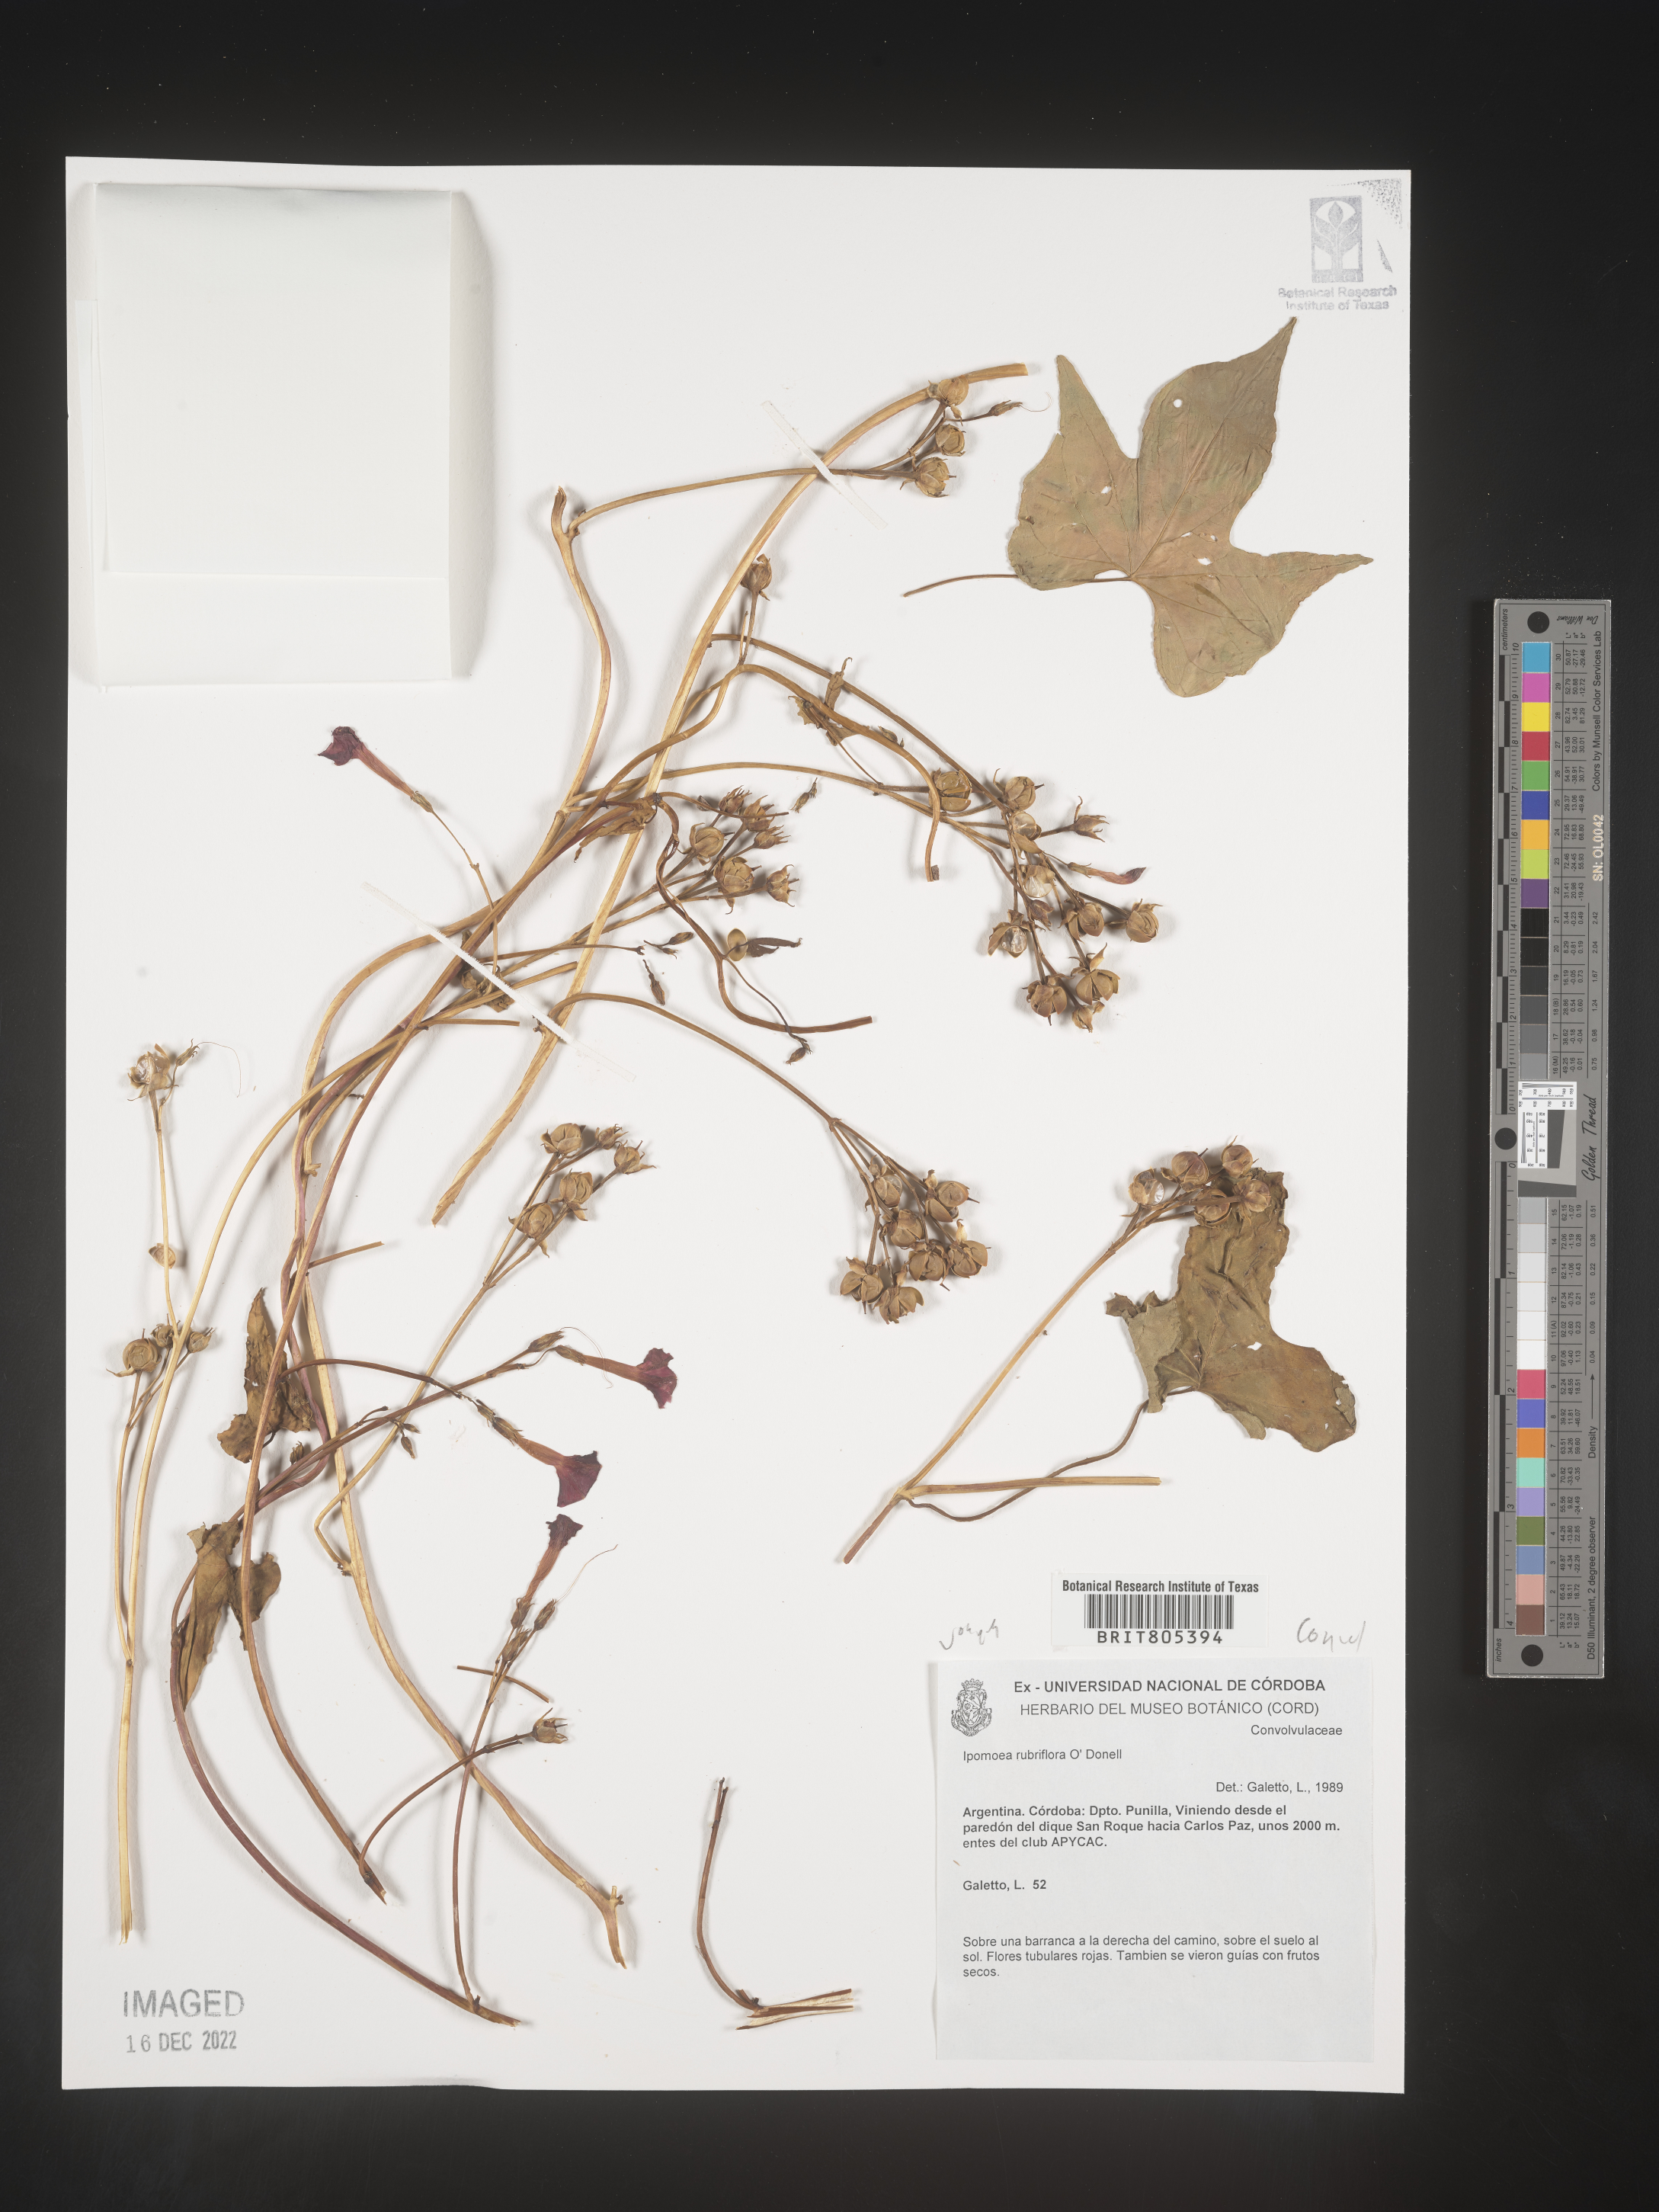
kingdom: Plantae
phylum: Tracheophyta
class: Magnoliopsida
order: Solanales
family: Convolvulaceae
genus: Ipomoea
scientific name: Ipomoea
